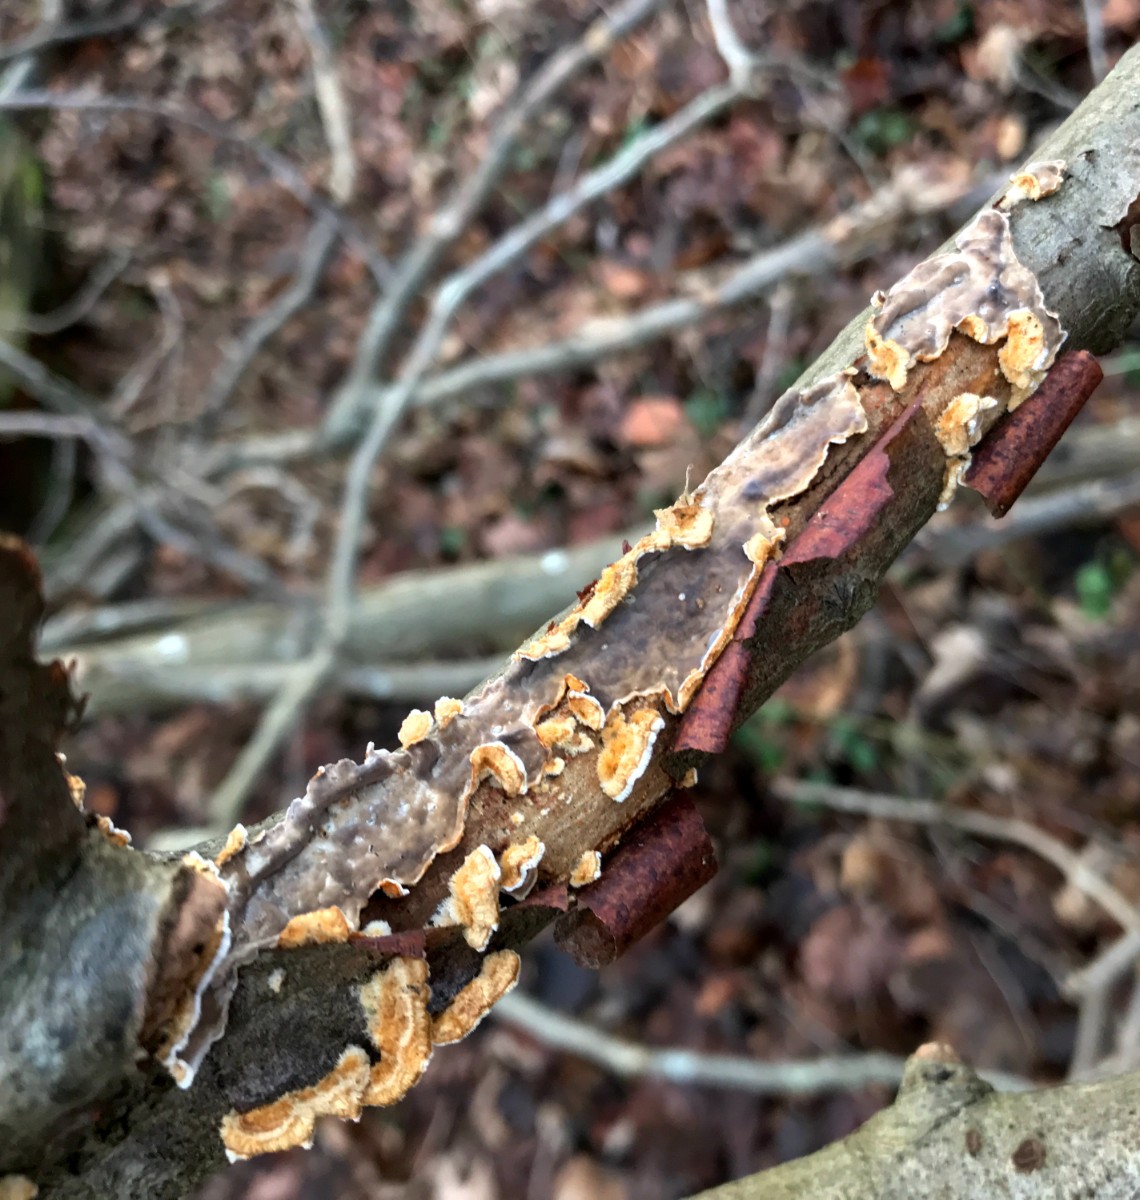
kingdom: Fungi
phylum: Basidiomycota
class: Agaricomycetes
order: Russulales
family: Stereaceae
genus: Stereum
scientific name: Stereum hirsutum
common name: håret lædersvamp
